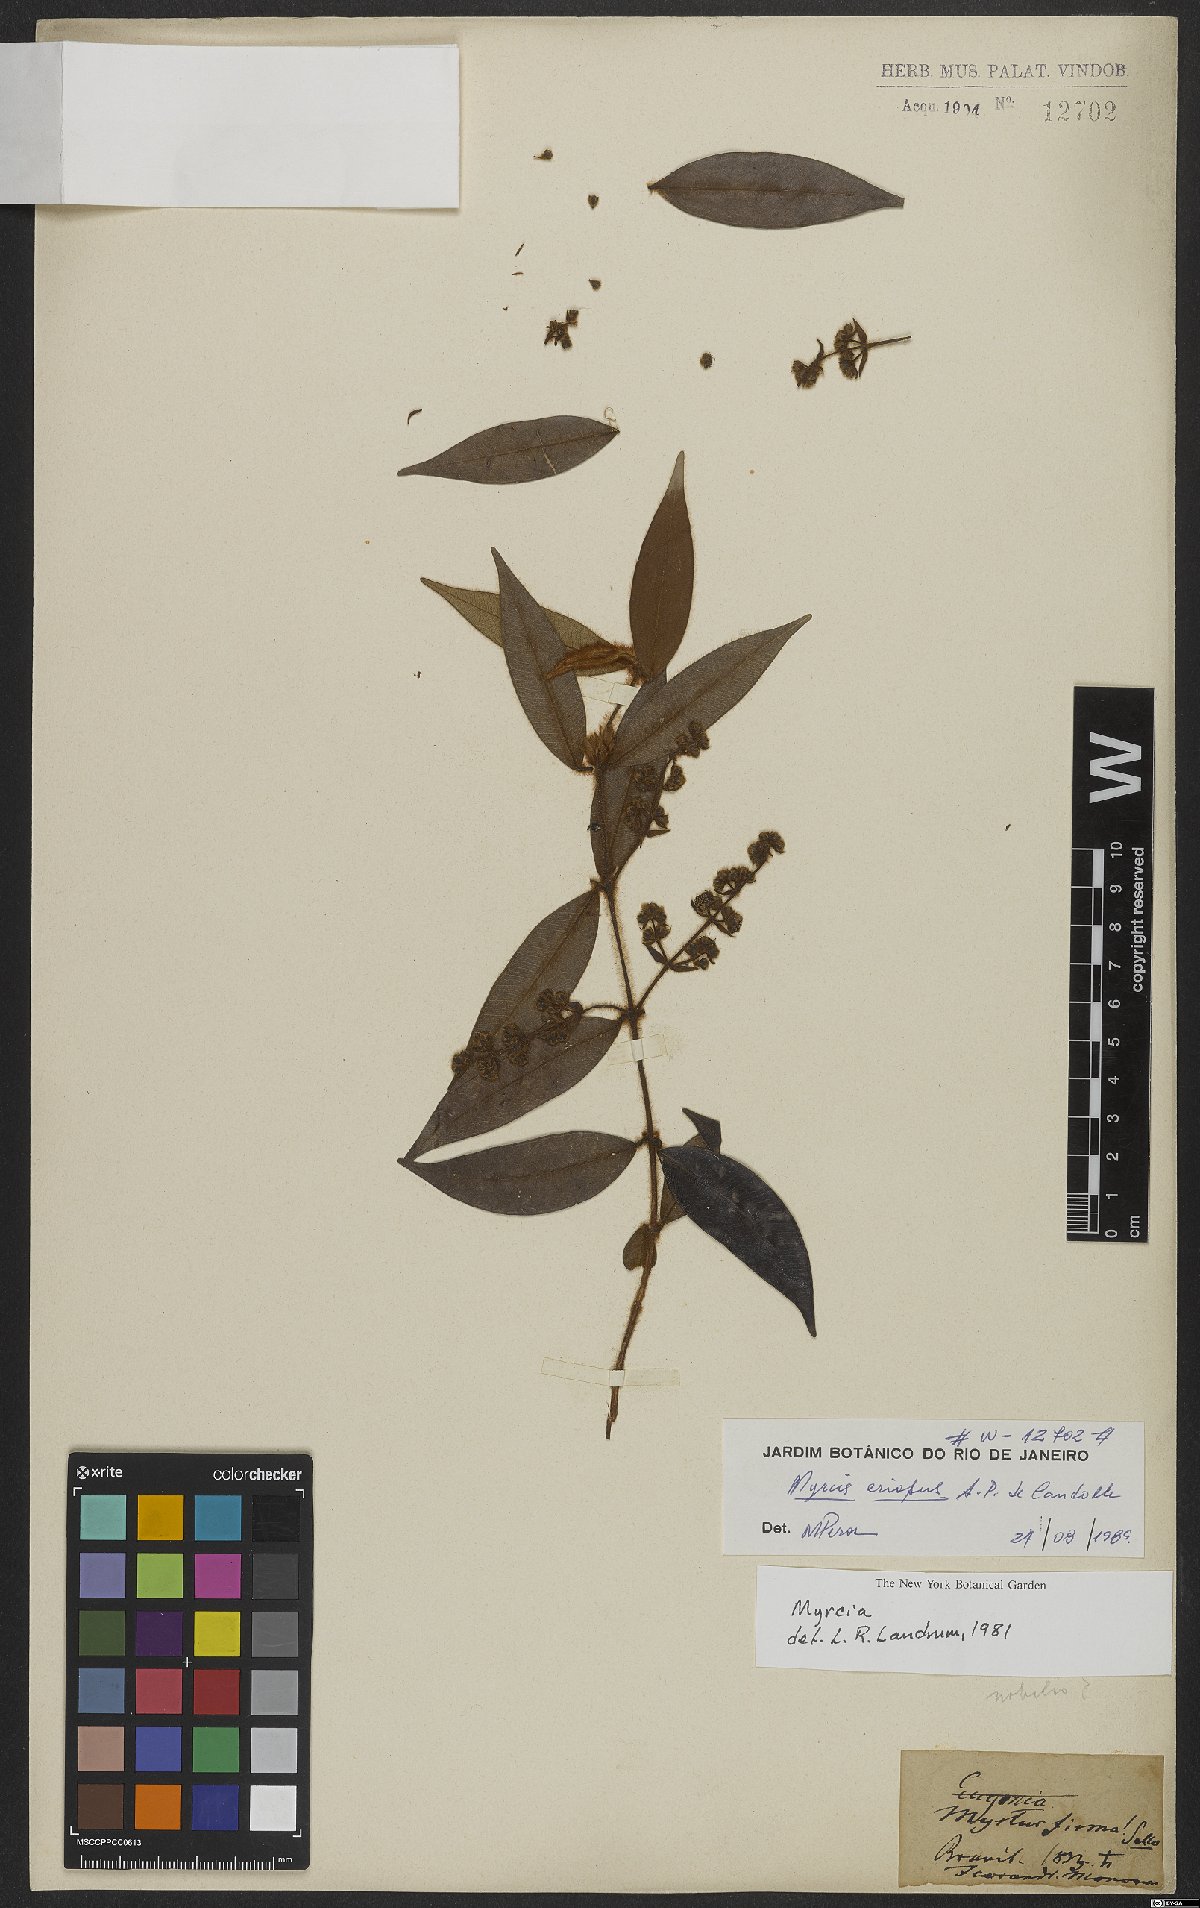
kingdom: Plantae
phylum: Tracheophyta
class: Magnoliopsida
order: Myrtales
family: Myrtaceae
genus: Myrcia
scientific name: Myrcia eriopus
